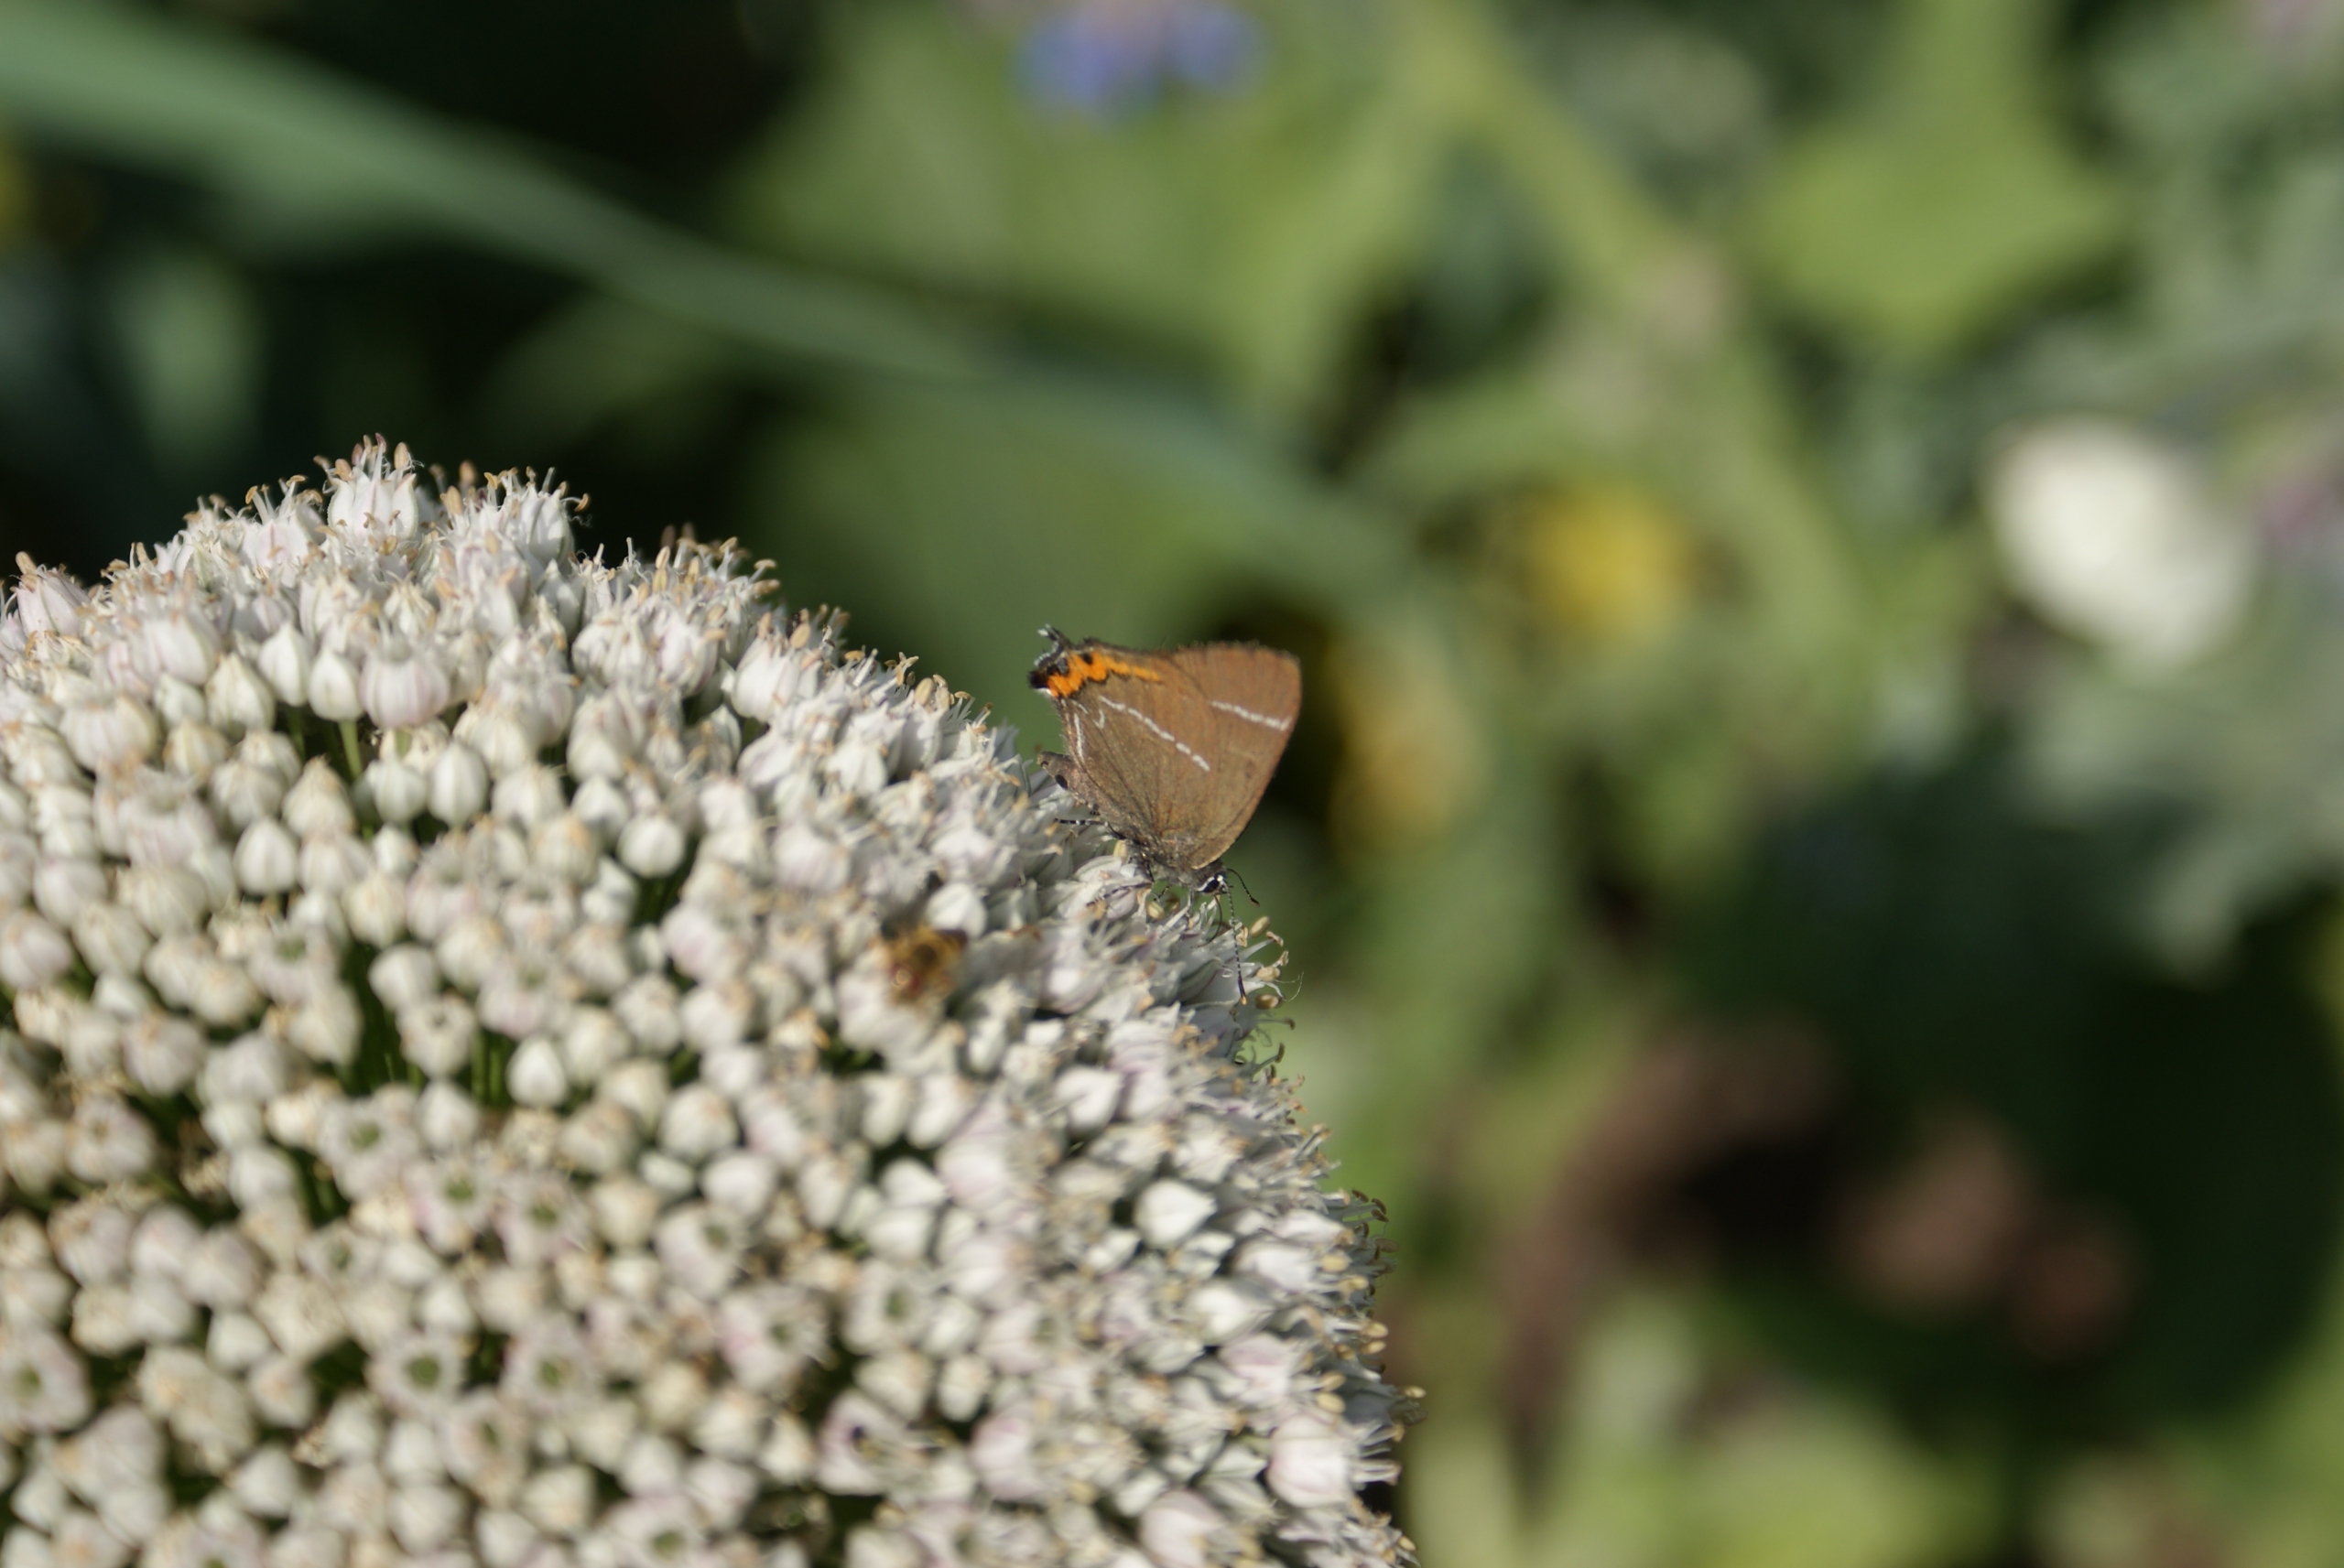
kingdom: Animalia
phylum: Arthropoda
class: Insecta
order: Lepidoptera
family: Lycaenidae
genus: Satyrium
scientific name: Satyrium w-album
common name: Det hvide W
